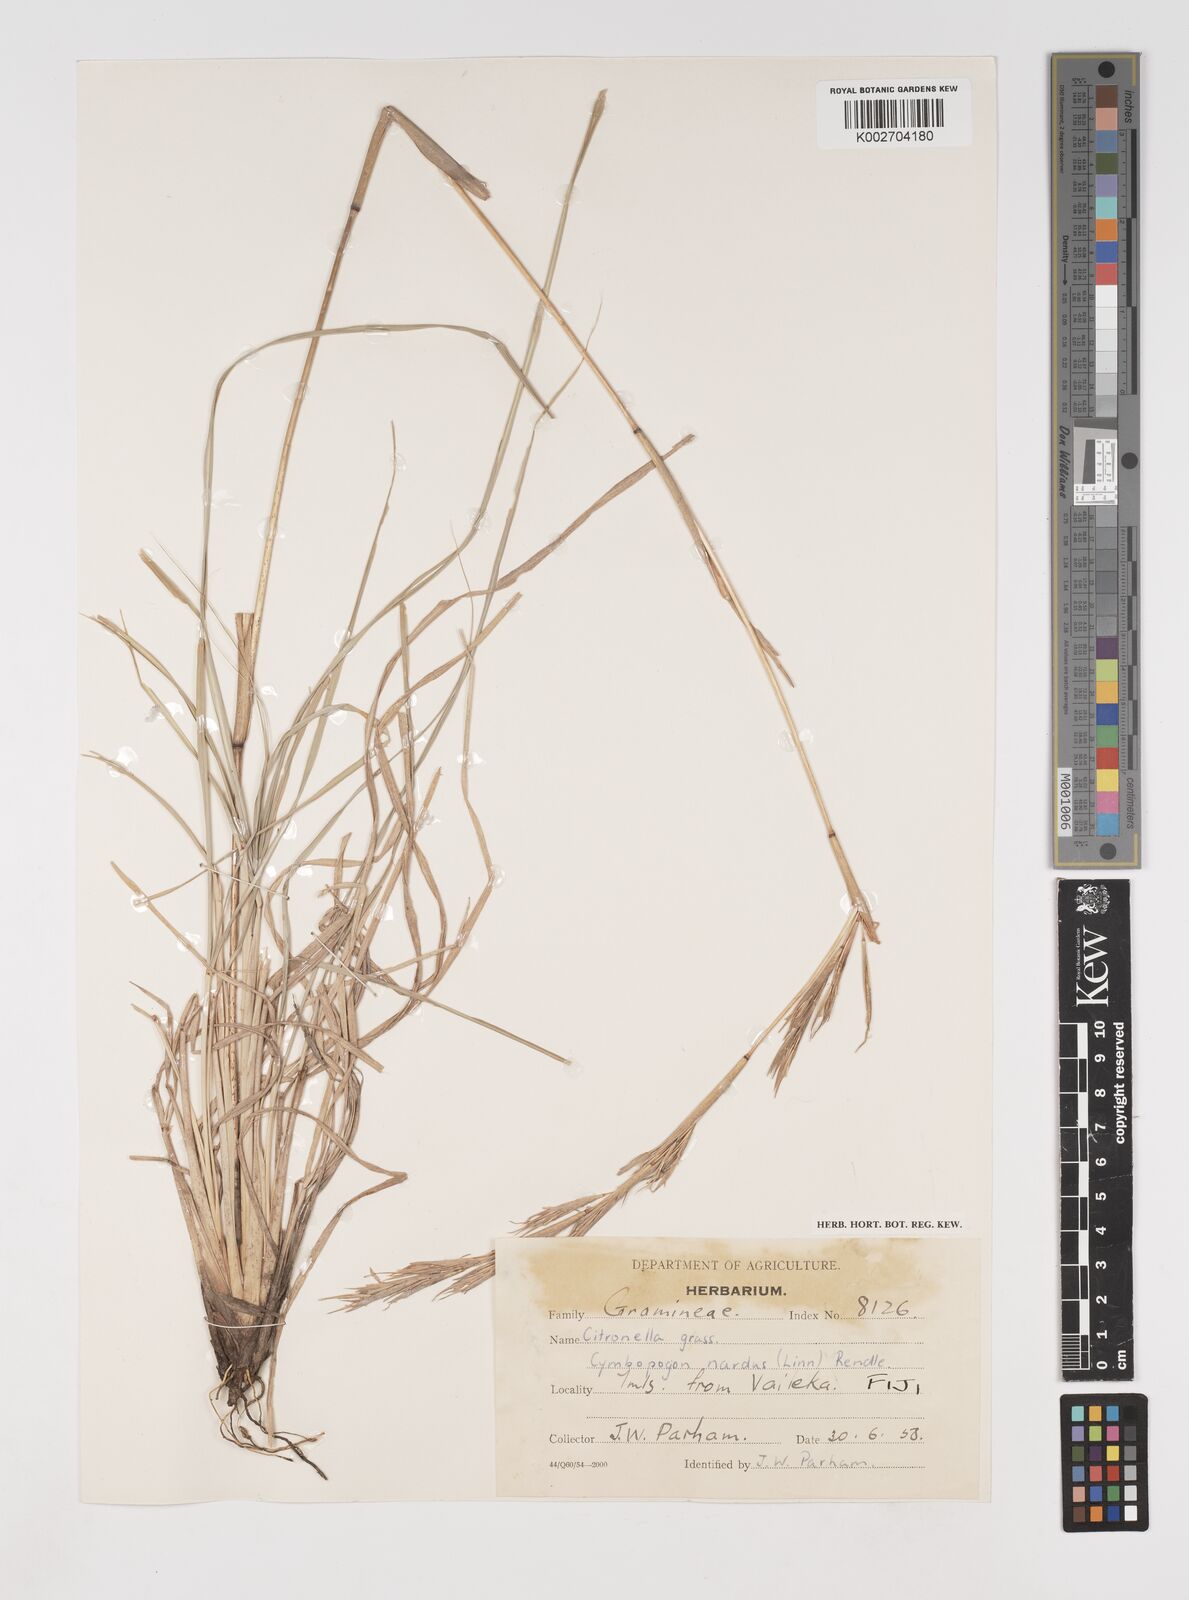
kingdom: Plantae
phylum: Tracheophyta
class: Liliopsida
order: Poales
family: Poaceae
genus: Cymbopogon
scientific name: Cymbopogon nardus
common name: Giant turpentine grass
